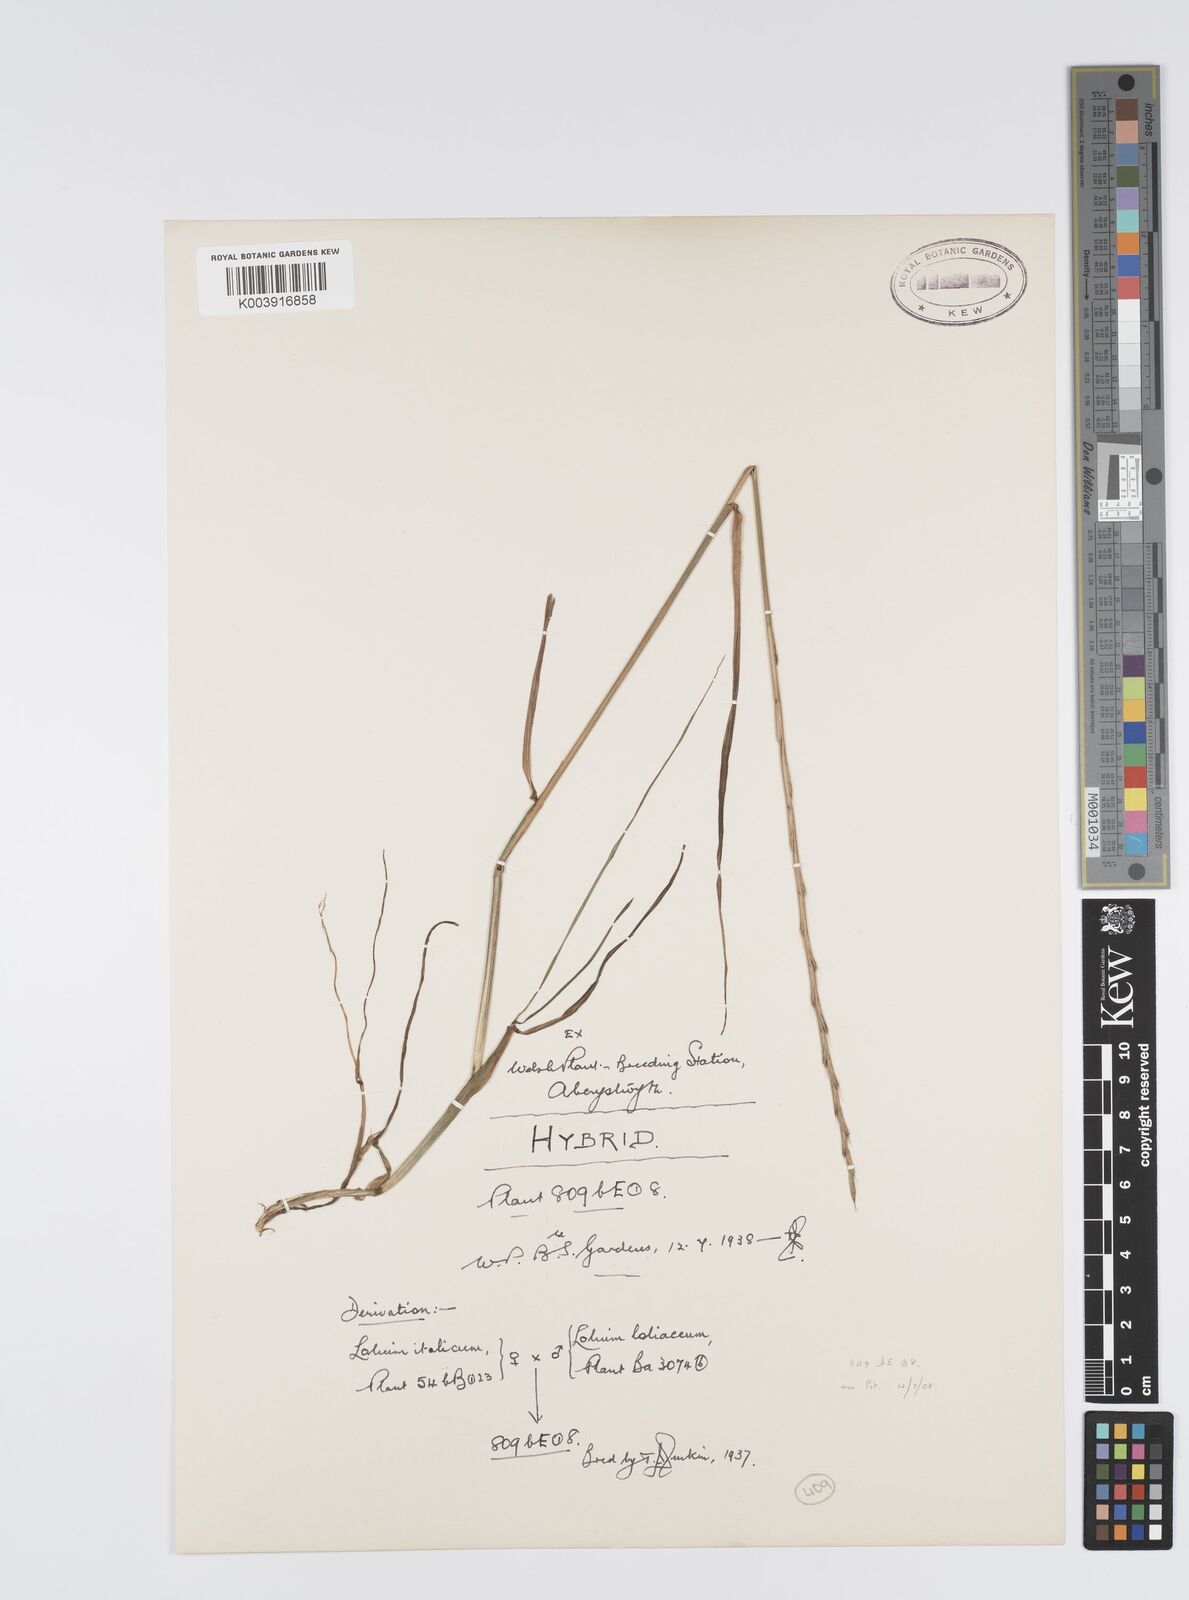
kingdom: Plantae
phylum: Tracheophyta
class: Liliopsida
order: Poales
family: Poaceae
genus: Lolium
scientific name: Lolium multiflorum
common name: Annual ryegrass
